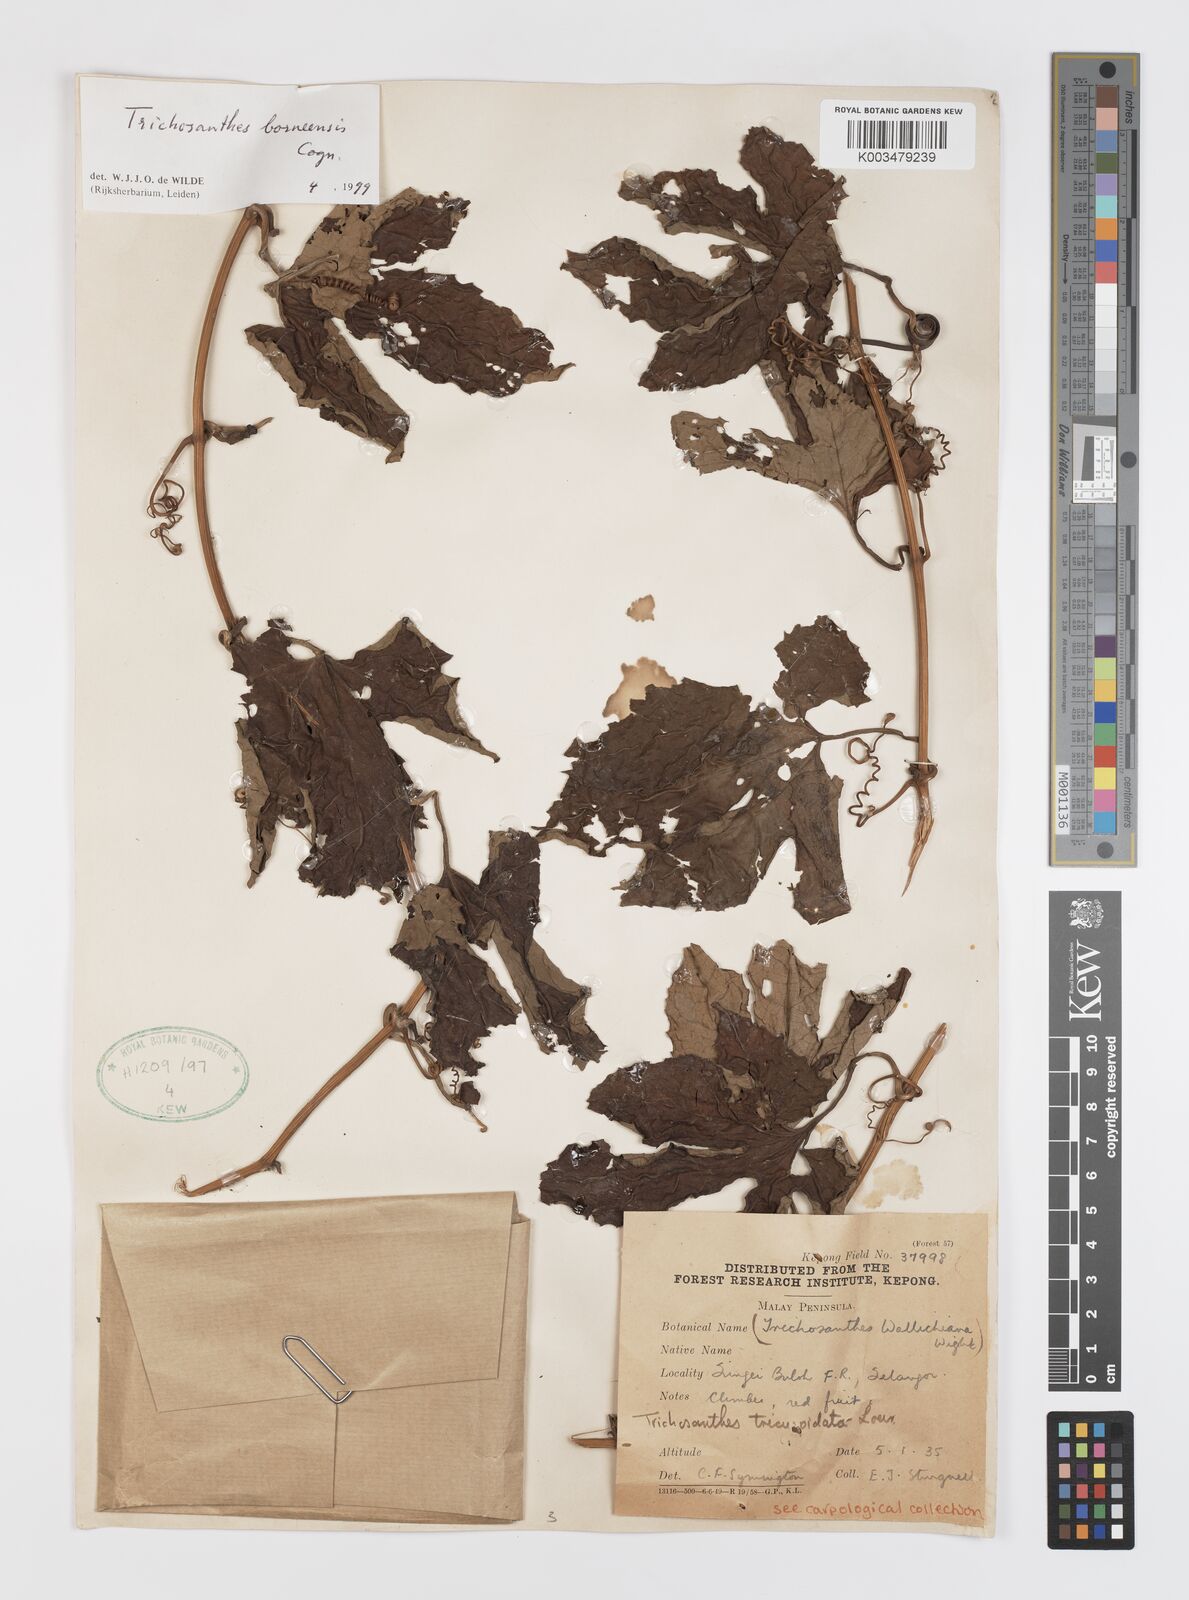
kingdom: Plantae
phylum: Tracheophyta
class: Magnoliopsida
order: Cucurbitales
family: Cucurbitaceae
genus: Trichosanthes
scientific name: Trichosanthes borneensis
